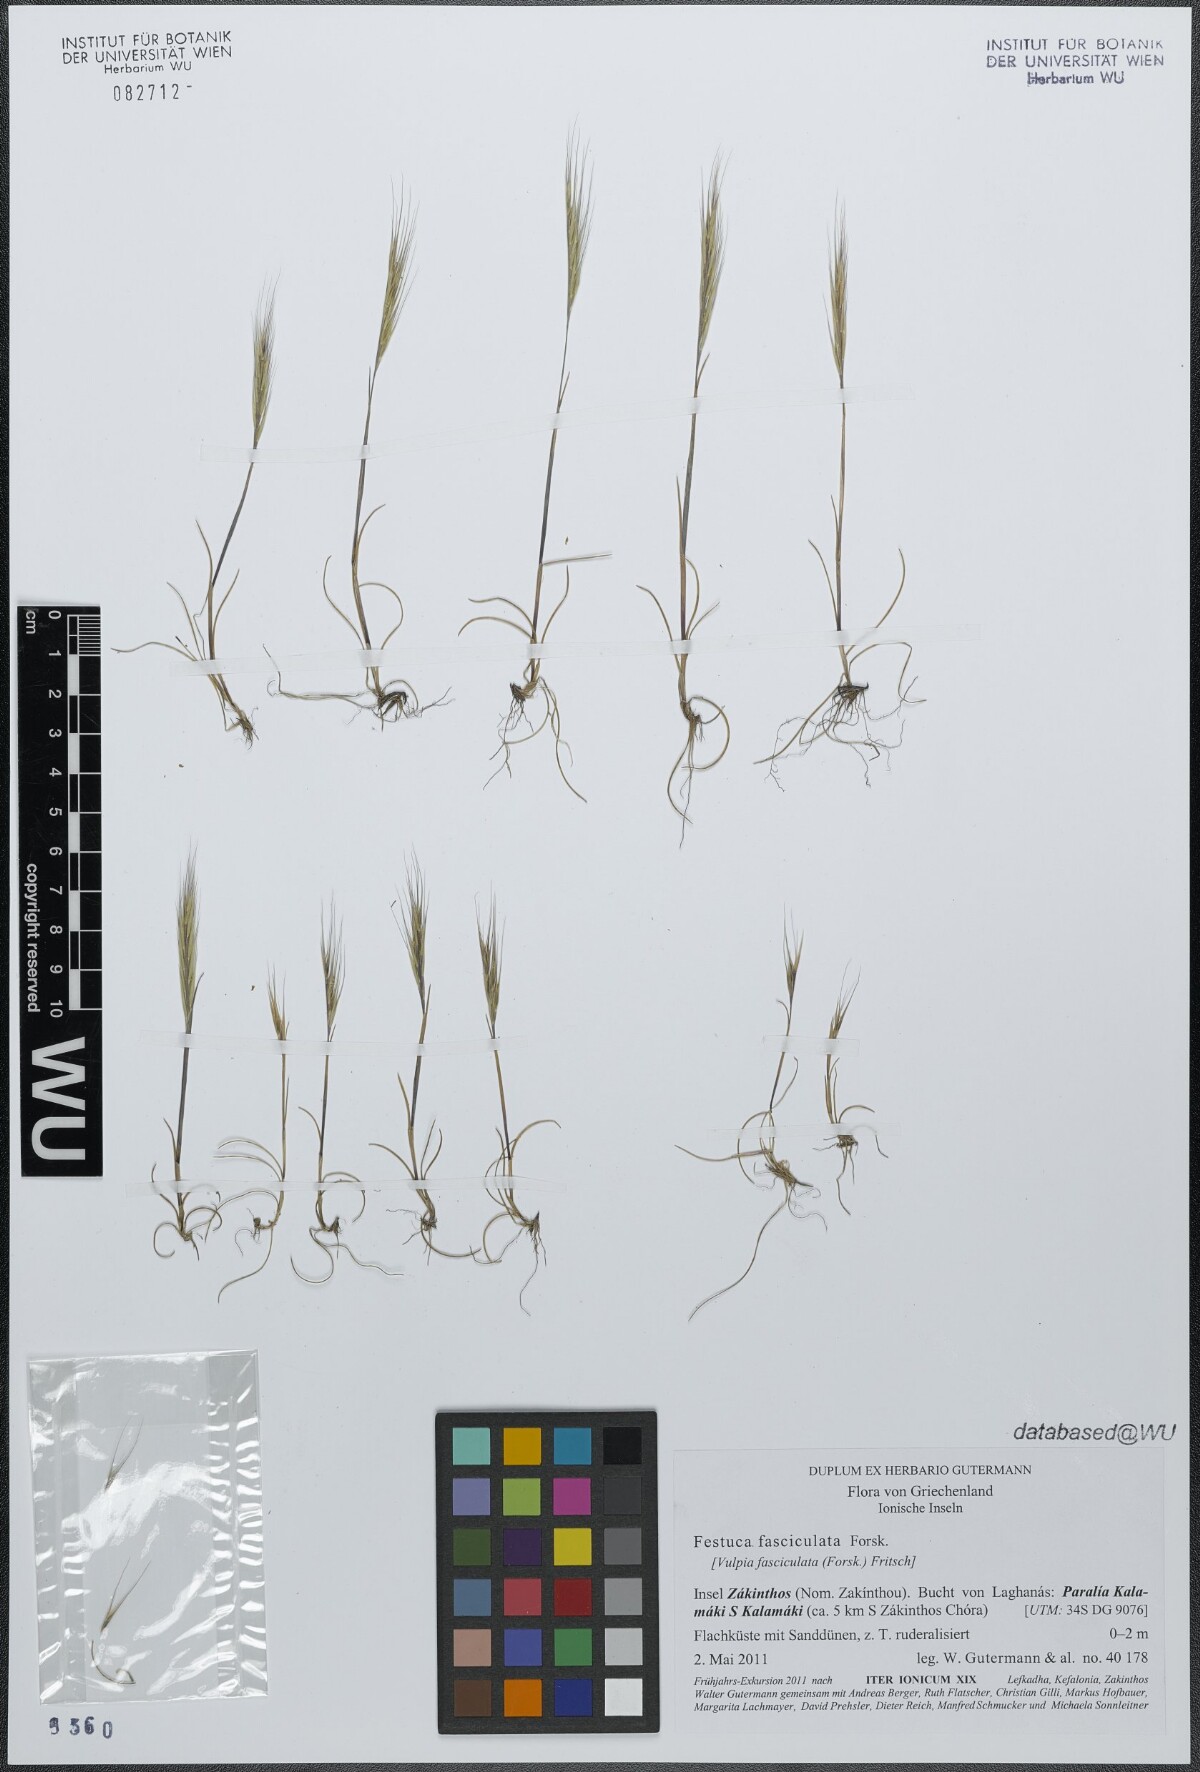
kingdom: Plantae
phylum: Tracheophyta
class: Liliopsida
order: Poales
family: Poaceae
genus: Festuca
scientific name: Festuca fasciculata
